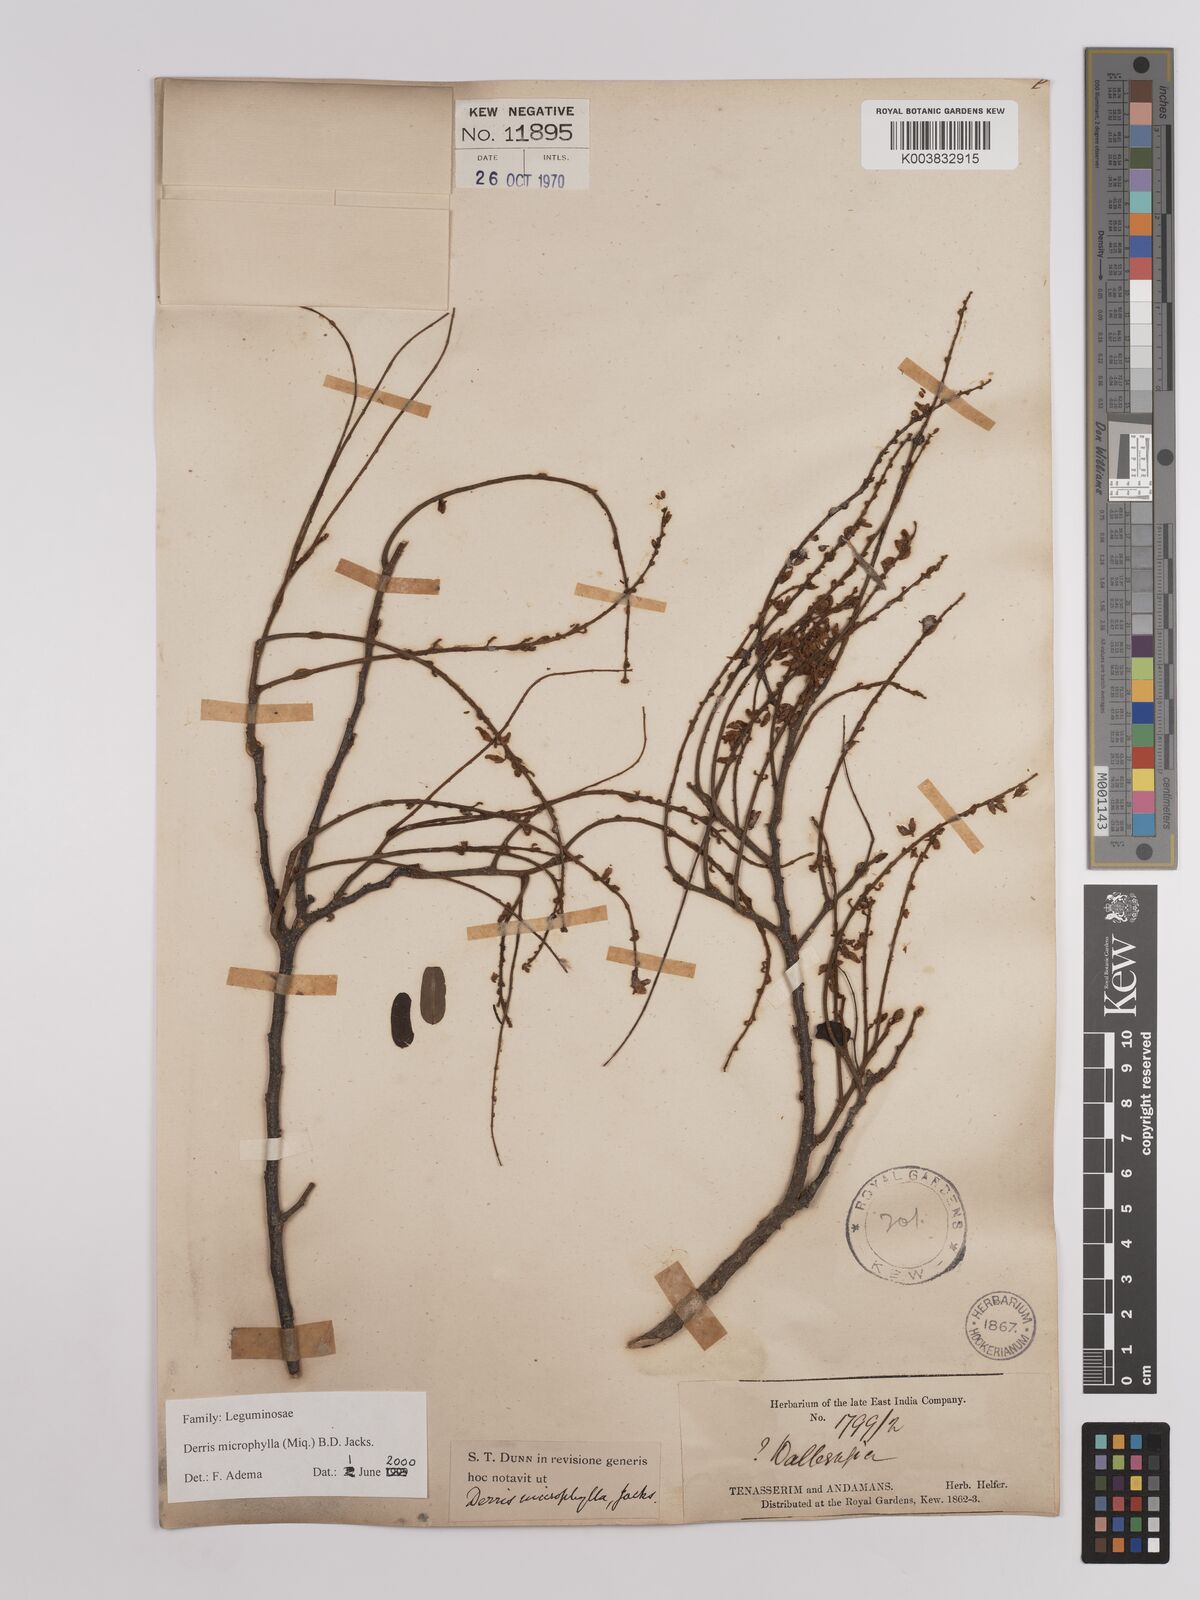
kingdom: Plantae
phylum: Tracheophyta
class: Magnoliopsida
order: Fabales
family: Fabaceae
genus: Brachypterum
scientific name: Brachypterum microphyllum
